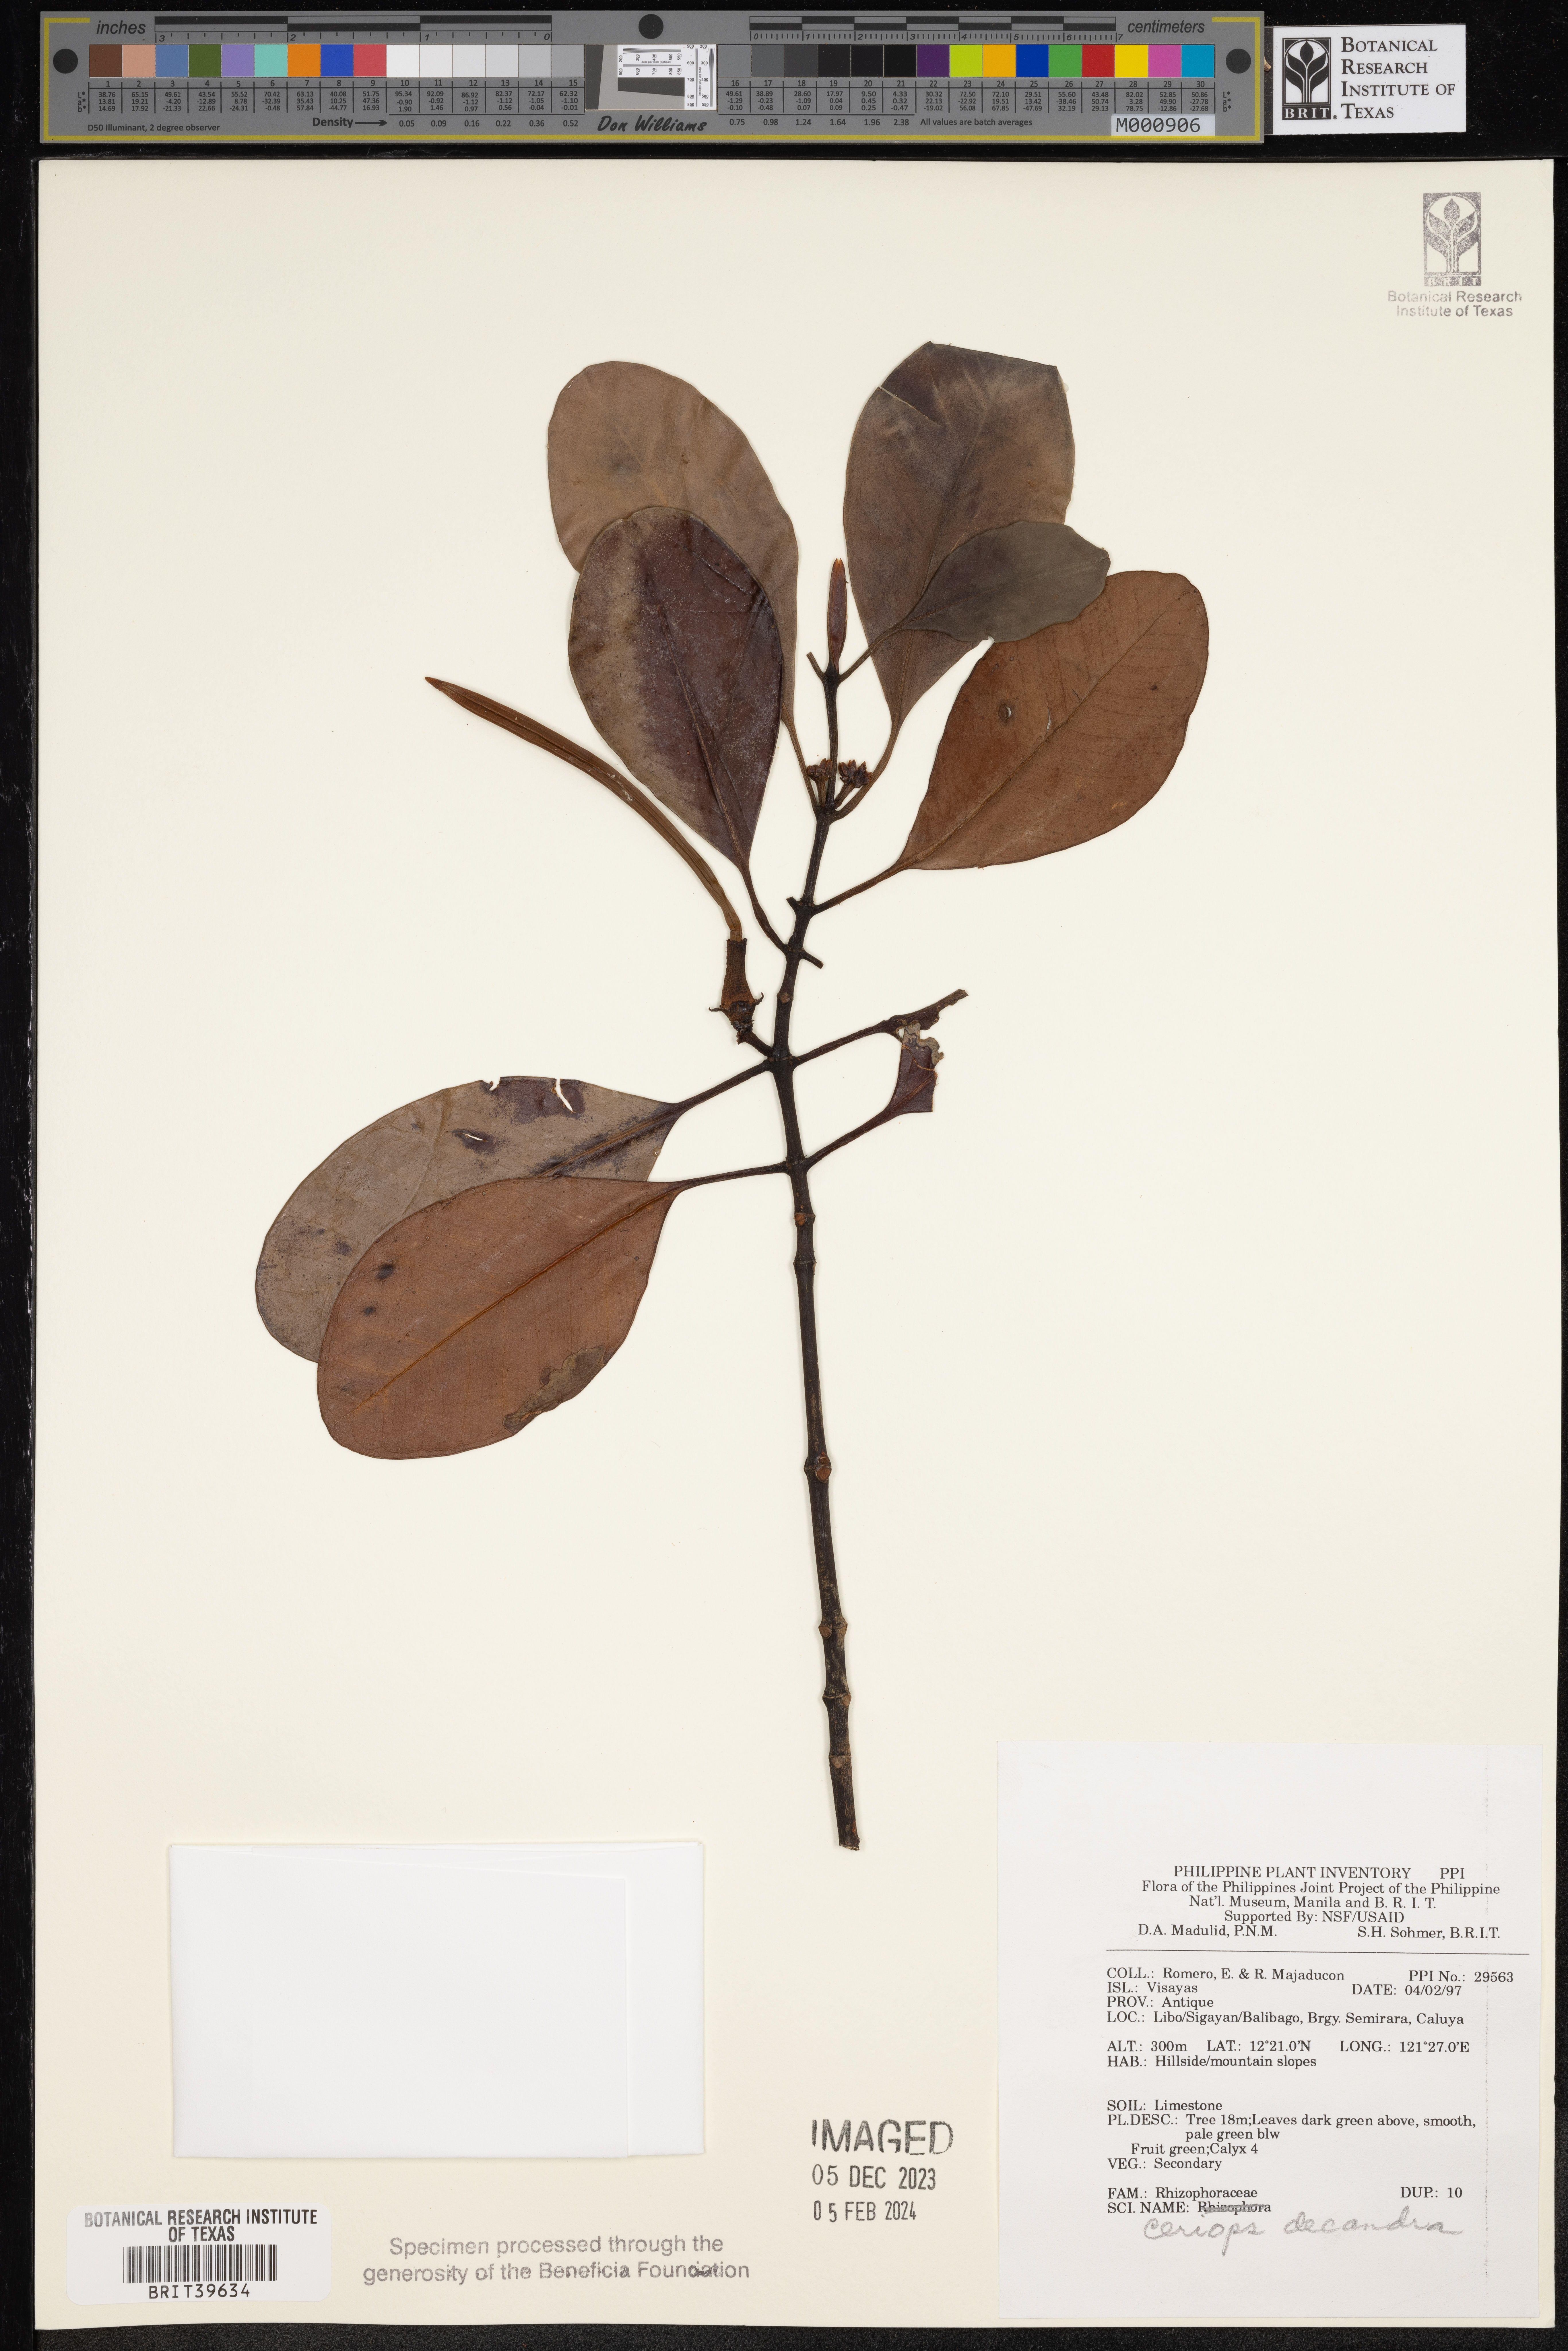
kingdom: Plantae
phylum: Tracheophyta
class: Magnoliopsida
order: Malpighiales
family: Rhizophoraceae
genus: Ceriops
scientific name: Ceriops decandra
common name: Flat-leaf spurred mangrove
